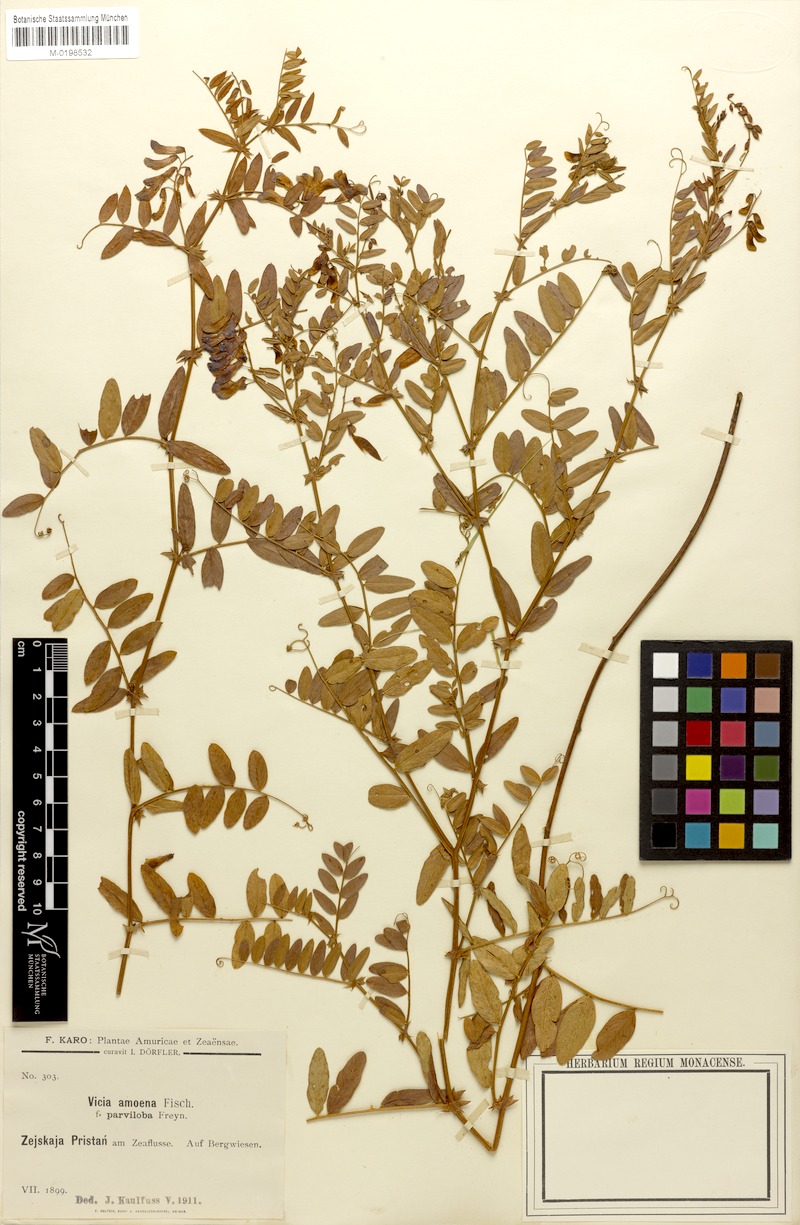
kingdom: Plantae
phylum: Tracheophyta
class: Magnoliopsida
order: Fabales
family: Fabaceae
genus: Vicia
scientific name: Vicia amoena
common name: Cheder ebs
